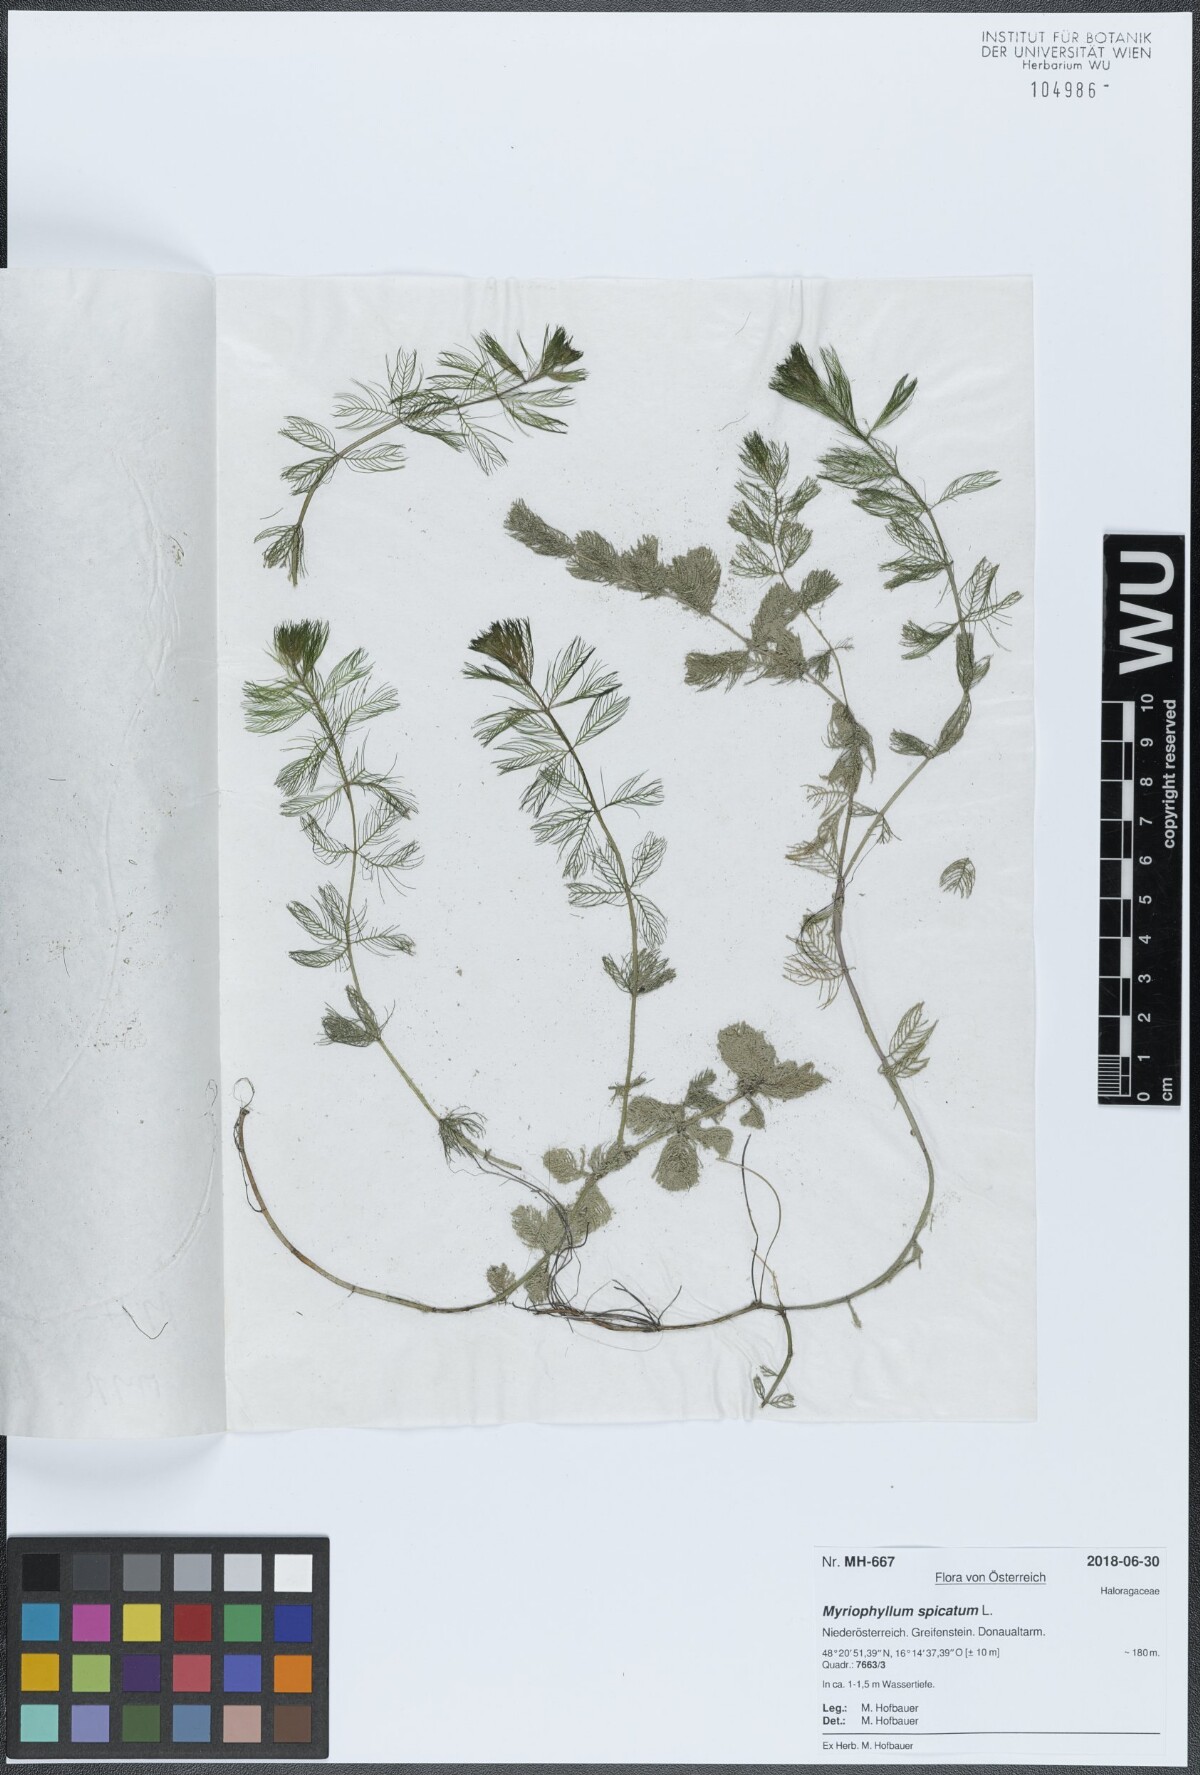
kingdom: Plantae
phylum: Tracheophyta
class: Magnoliopsida
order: Saxifragales
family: Haloragaceae
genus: Myriophyllum
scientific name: Myriophyllum spicatum
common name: Spiked water-milfoil
